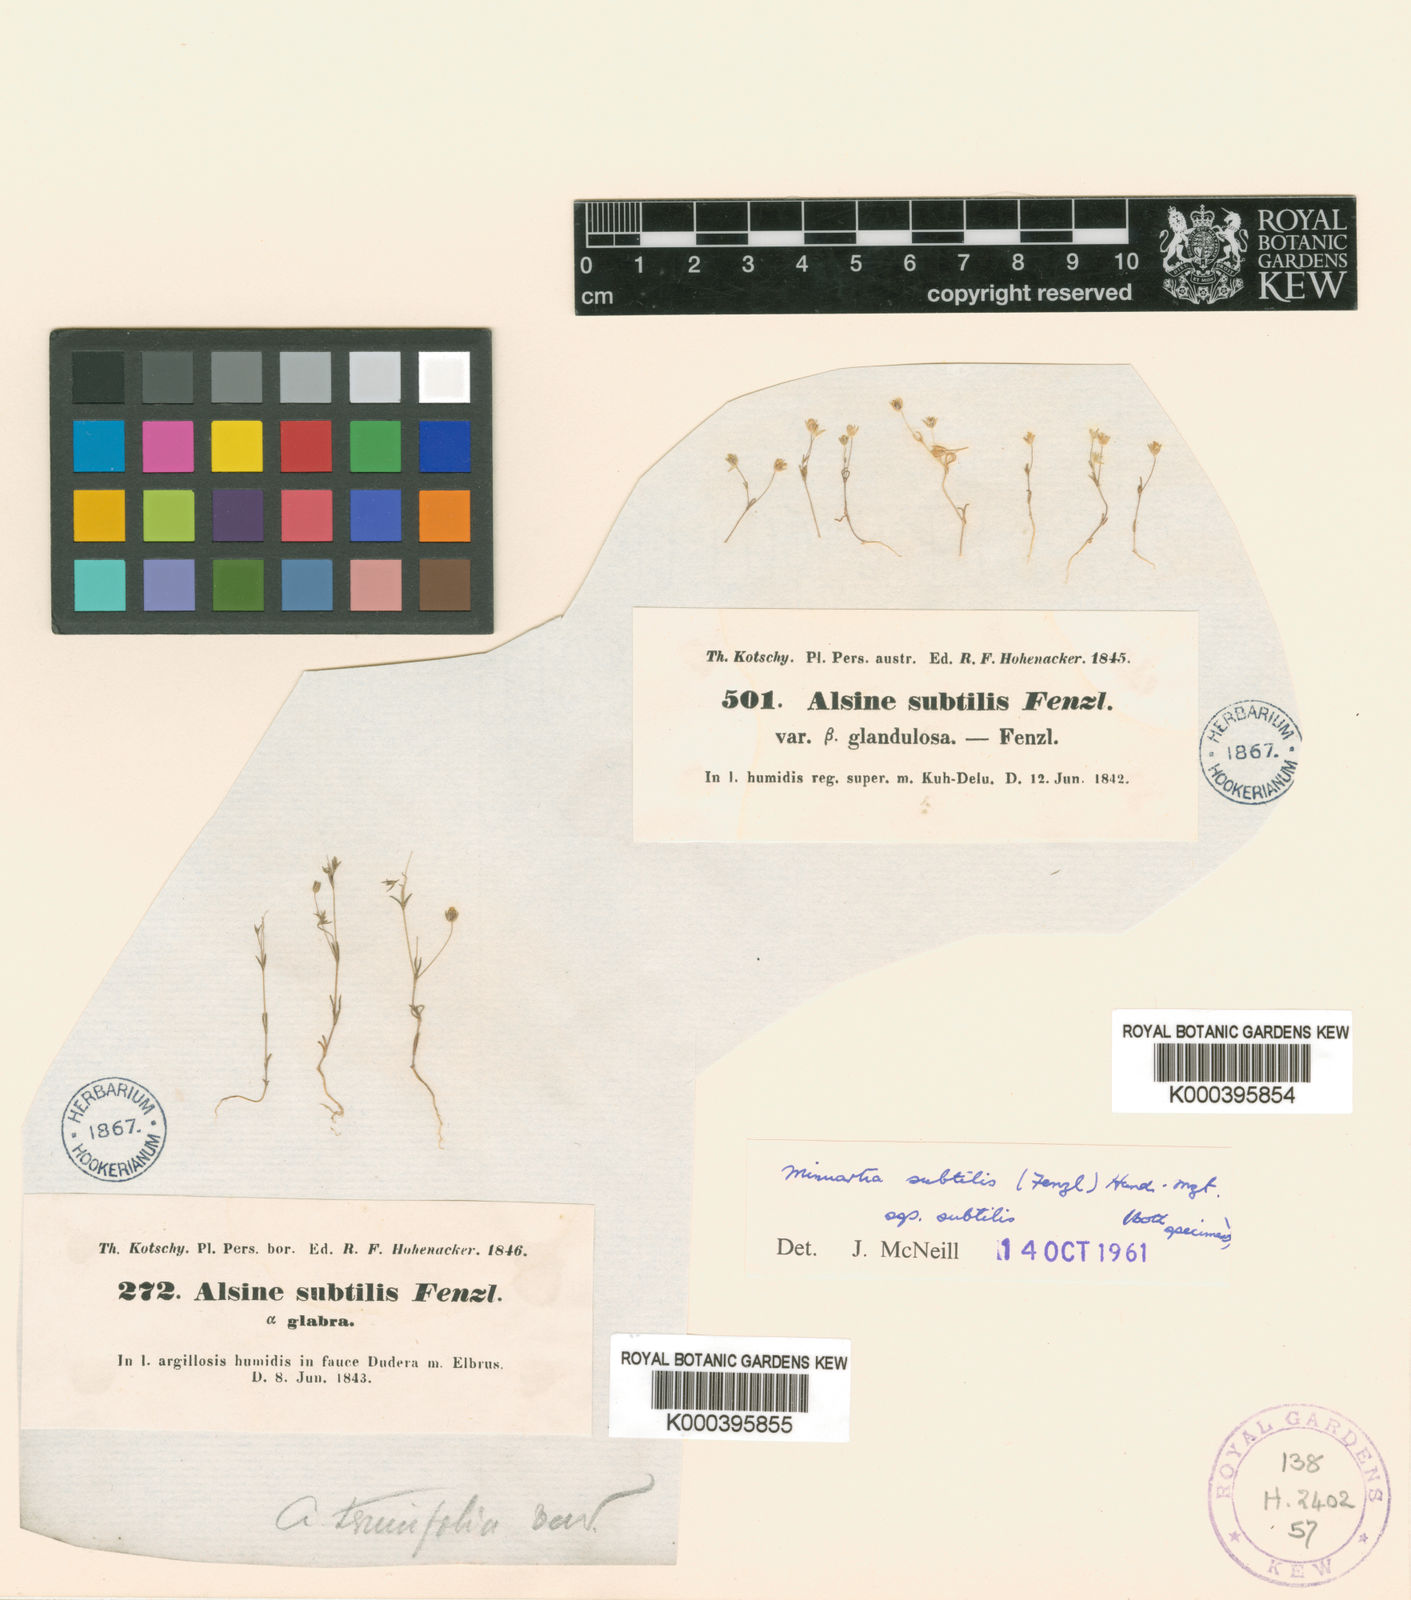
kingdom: Plantae
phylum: Tracheophyta
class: Magnoliopsida
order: Caryophyllales
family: Caryophyllaceae
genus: Sabulina
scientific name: Sabulina subtilis
